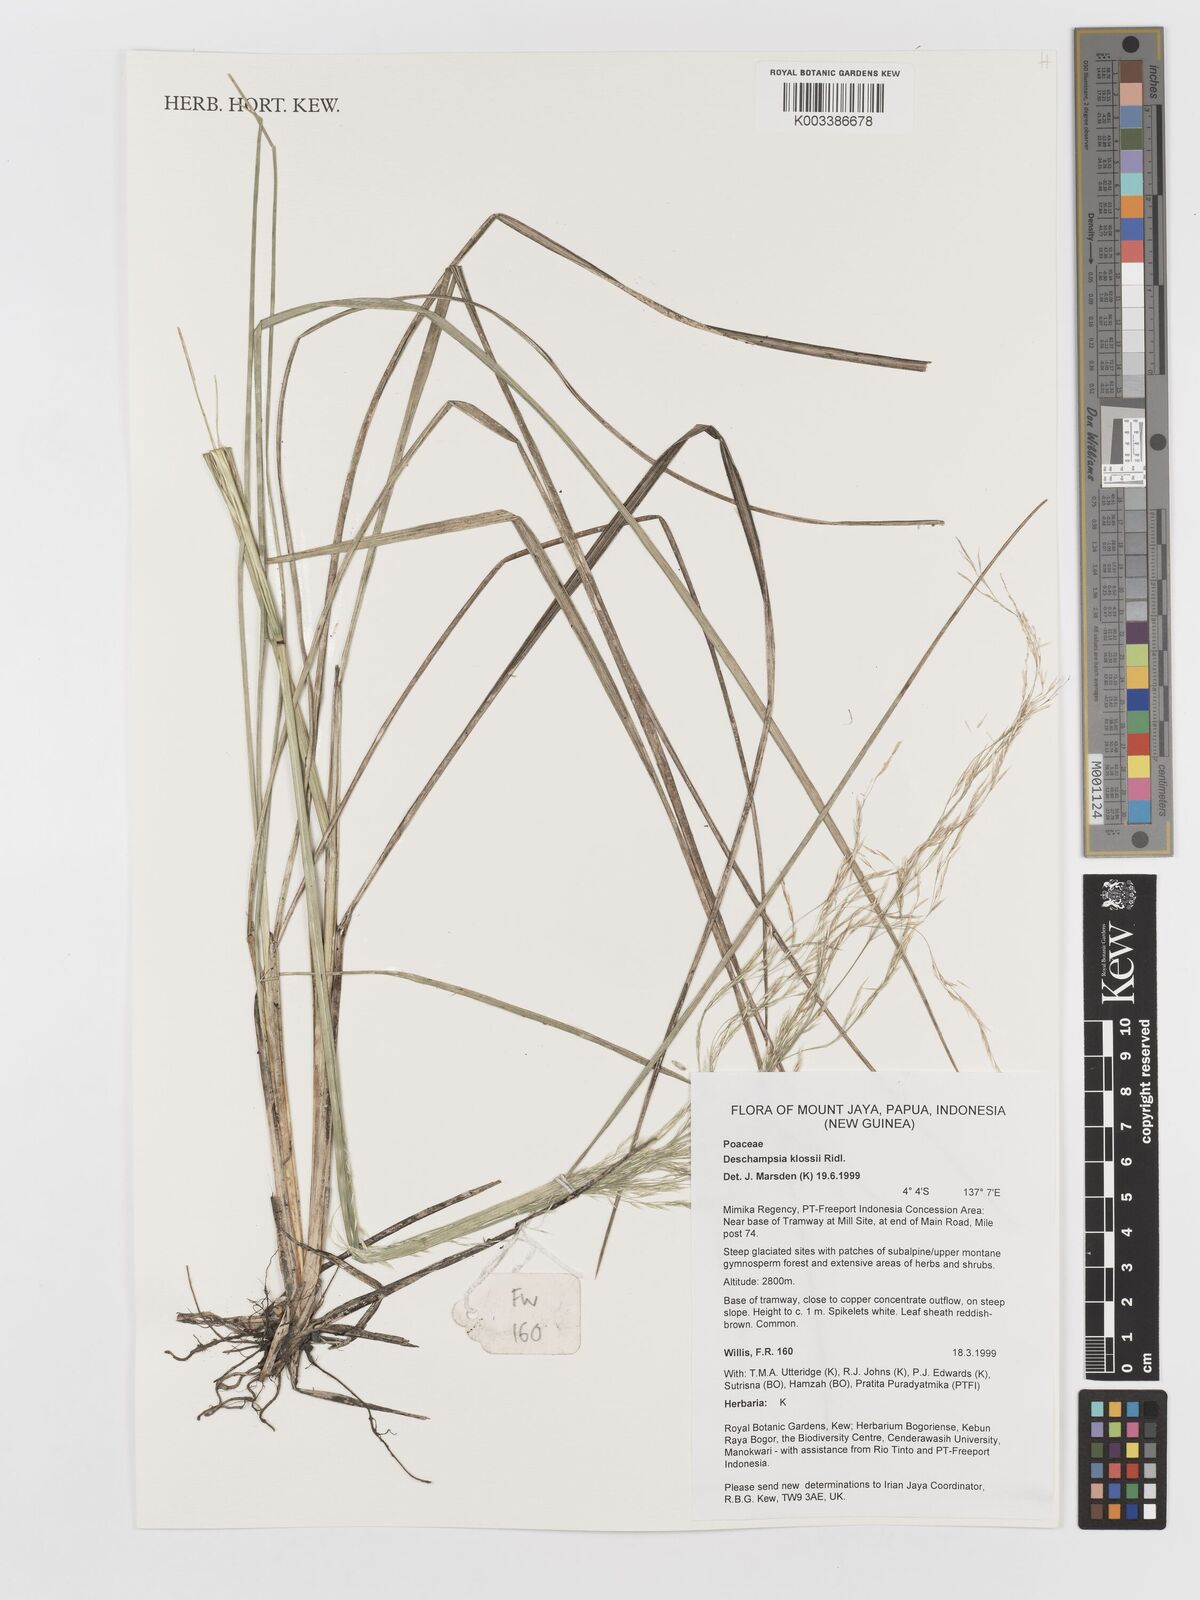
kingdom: Plantae
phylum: Tracheophyta
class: Liliopsida
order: Poales
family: Poaceae
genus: Deschampsia
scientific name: Deschampsia klossii
